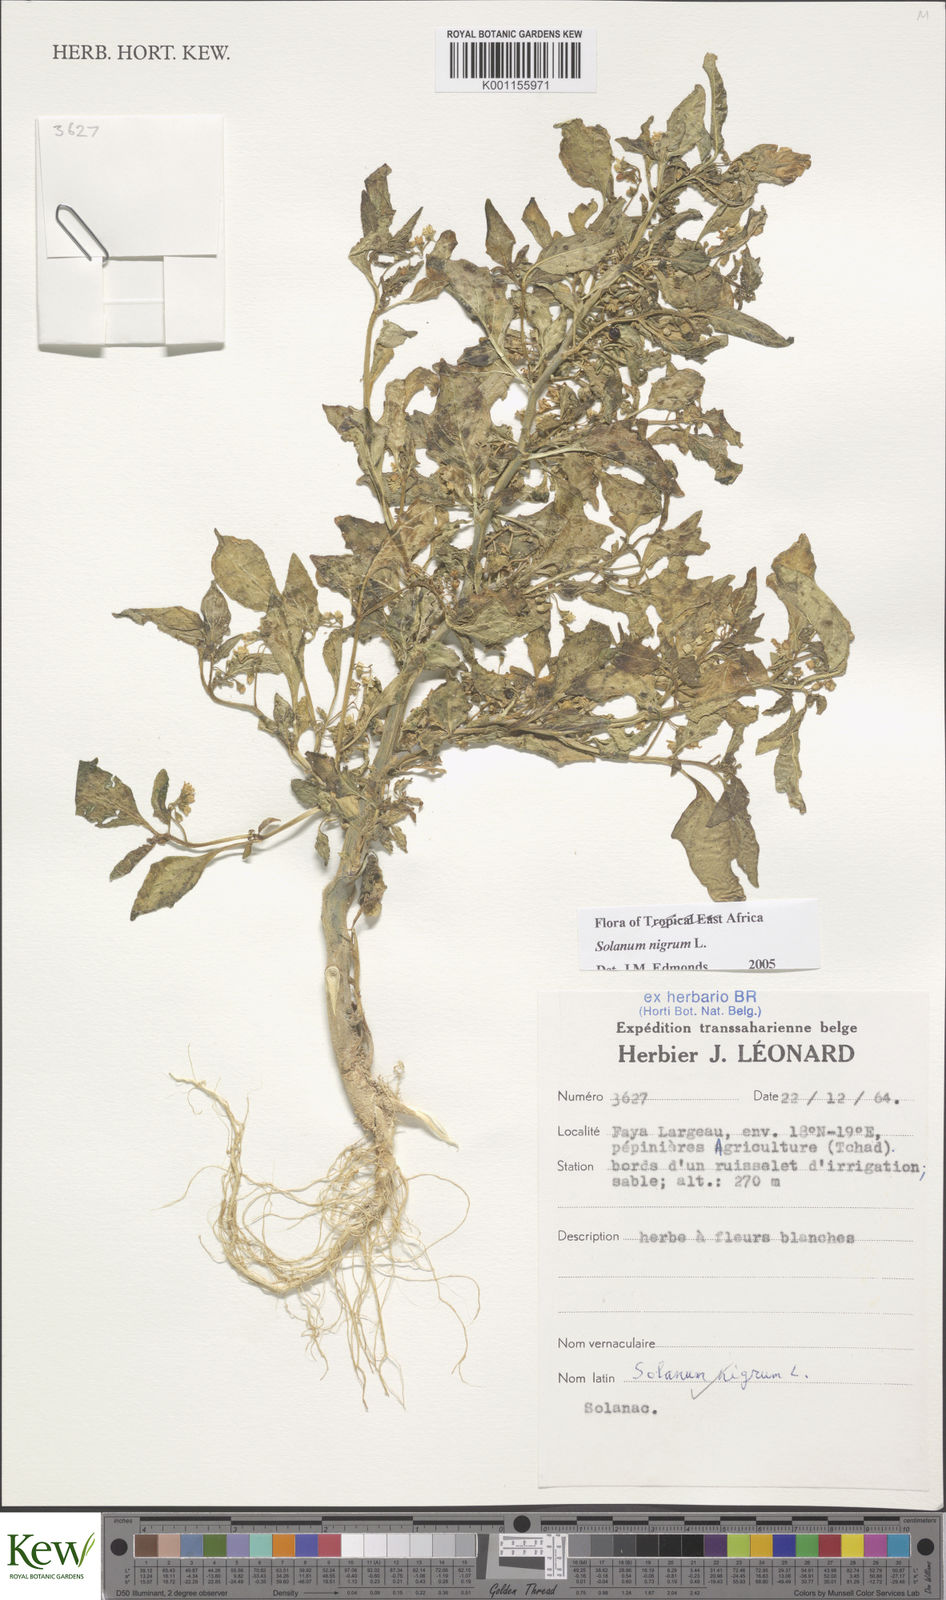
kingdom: Plantae
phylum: Tracheophyta
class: Magnoliopsida
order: Solanales
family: Solanaceae
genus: Solanum
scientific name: Solanum villosum
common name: Red nightshade
